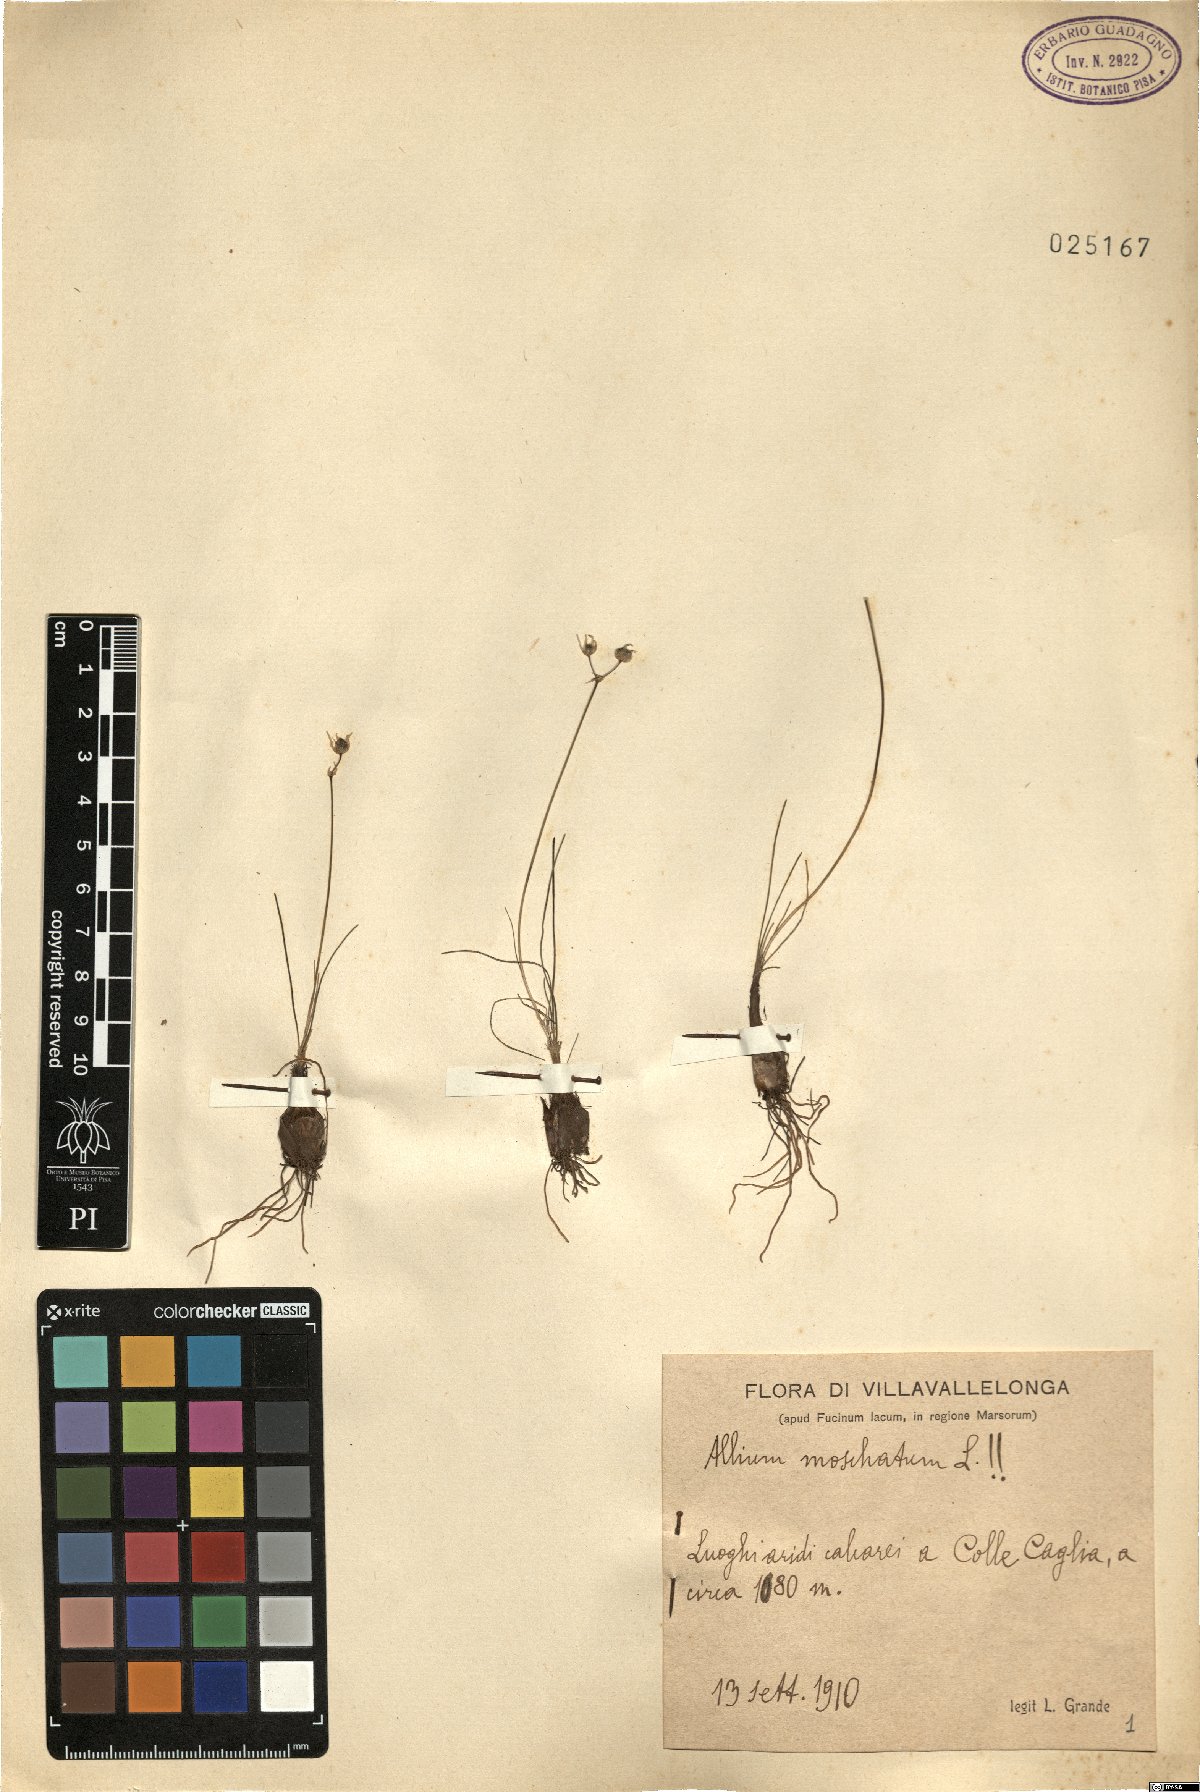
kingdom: Plantae
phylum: Tracheophyta
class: Liliopsida
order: Asparagales
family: Amaryllidaceae
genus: Allium
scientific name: Allium moschatum
